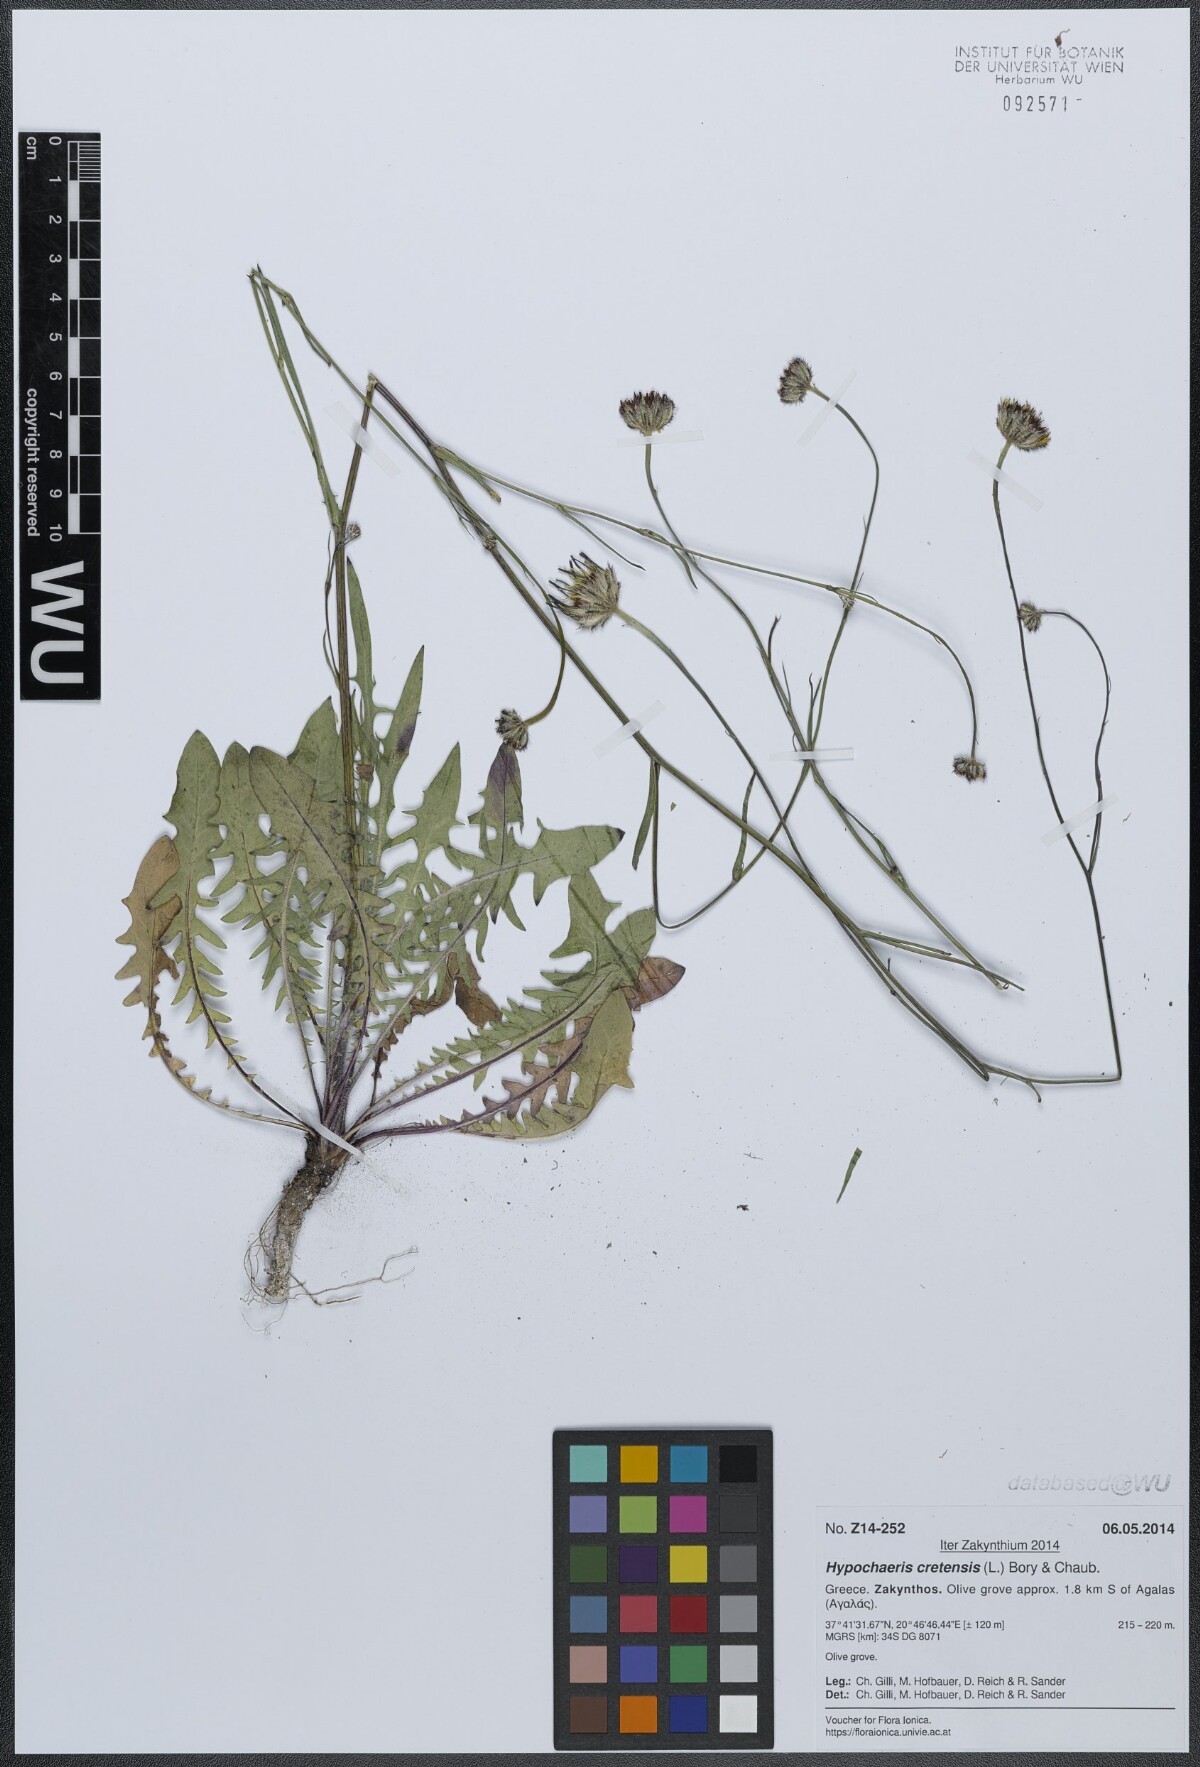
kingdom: Plantae
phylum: Tracheophyta
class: Magnoliopsida
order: Asterales
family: Asteraceae
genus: Hypochaeris
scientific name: Hypochaeris cretensis
